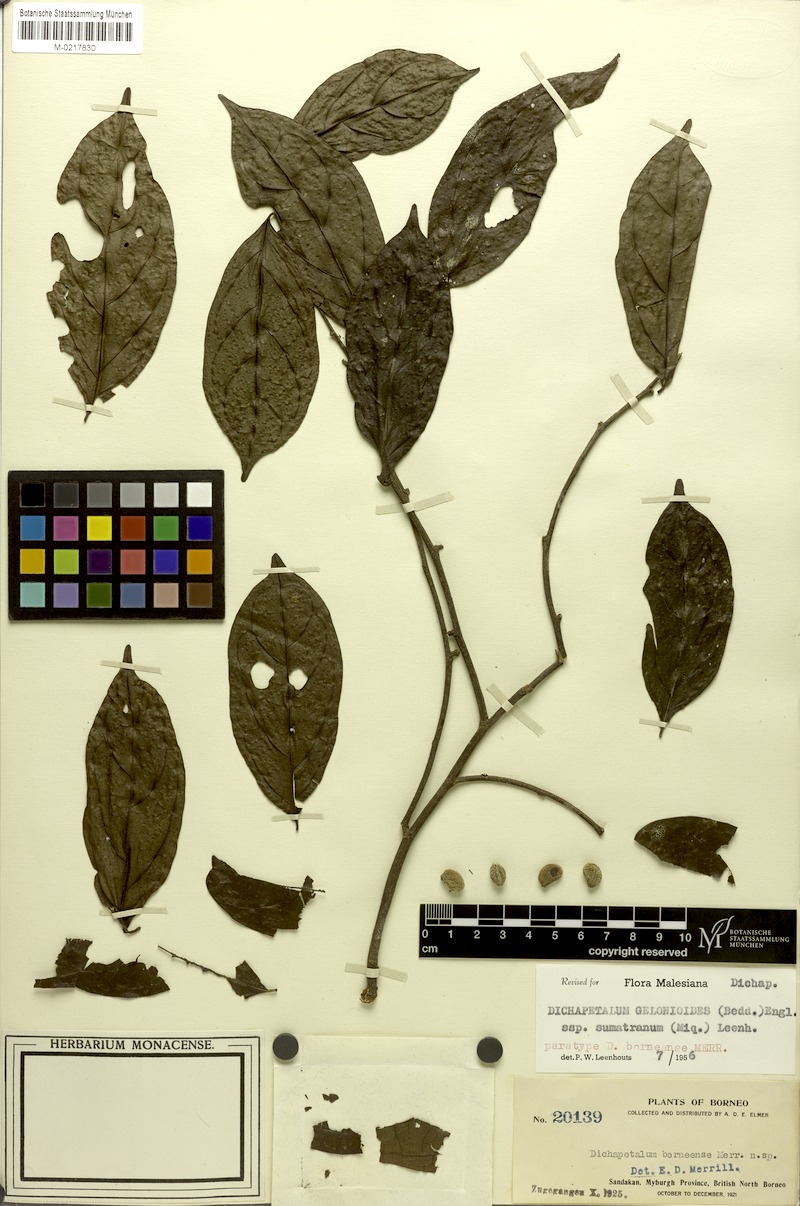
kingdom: Plantae
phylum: Tracheophyta
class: Magnoliopsida
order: Malpighiales
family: Dichapetalaceae
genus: Dichapetalum
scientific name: Dichapetalum gelonioides
